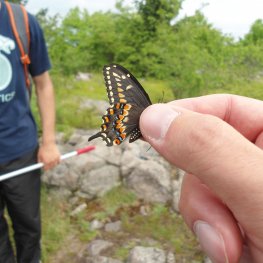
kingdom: Animalia
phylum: Arthropoda
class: Insecta
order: Lepidoptera
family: Papilionidae
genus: Papilio
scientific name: Papilio polyxenes
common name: Black Swallowtail
